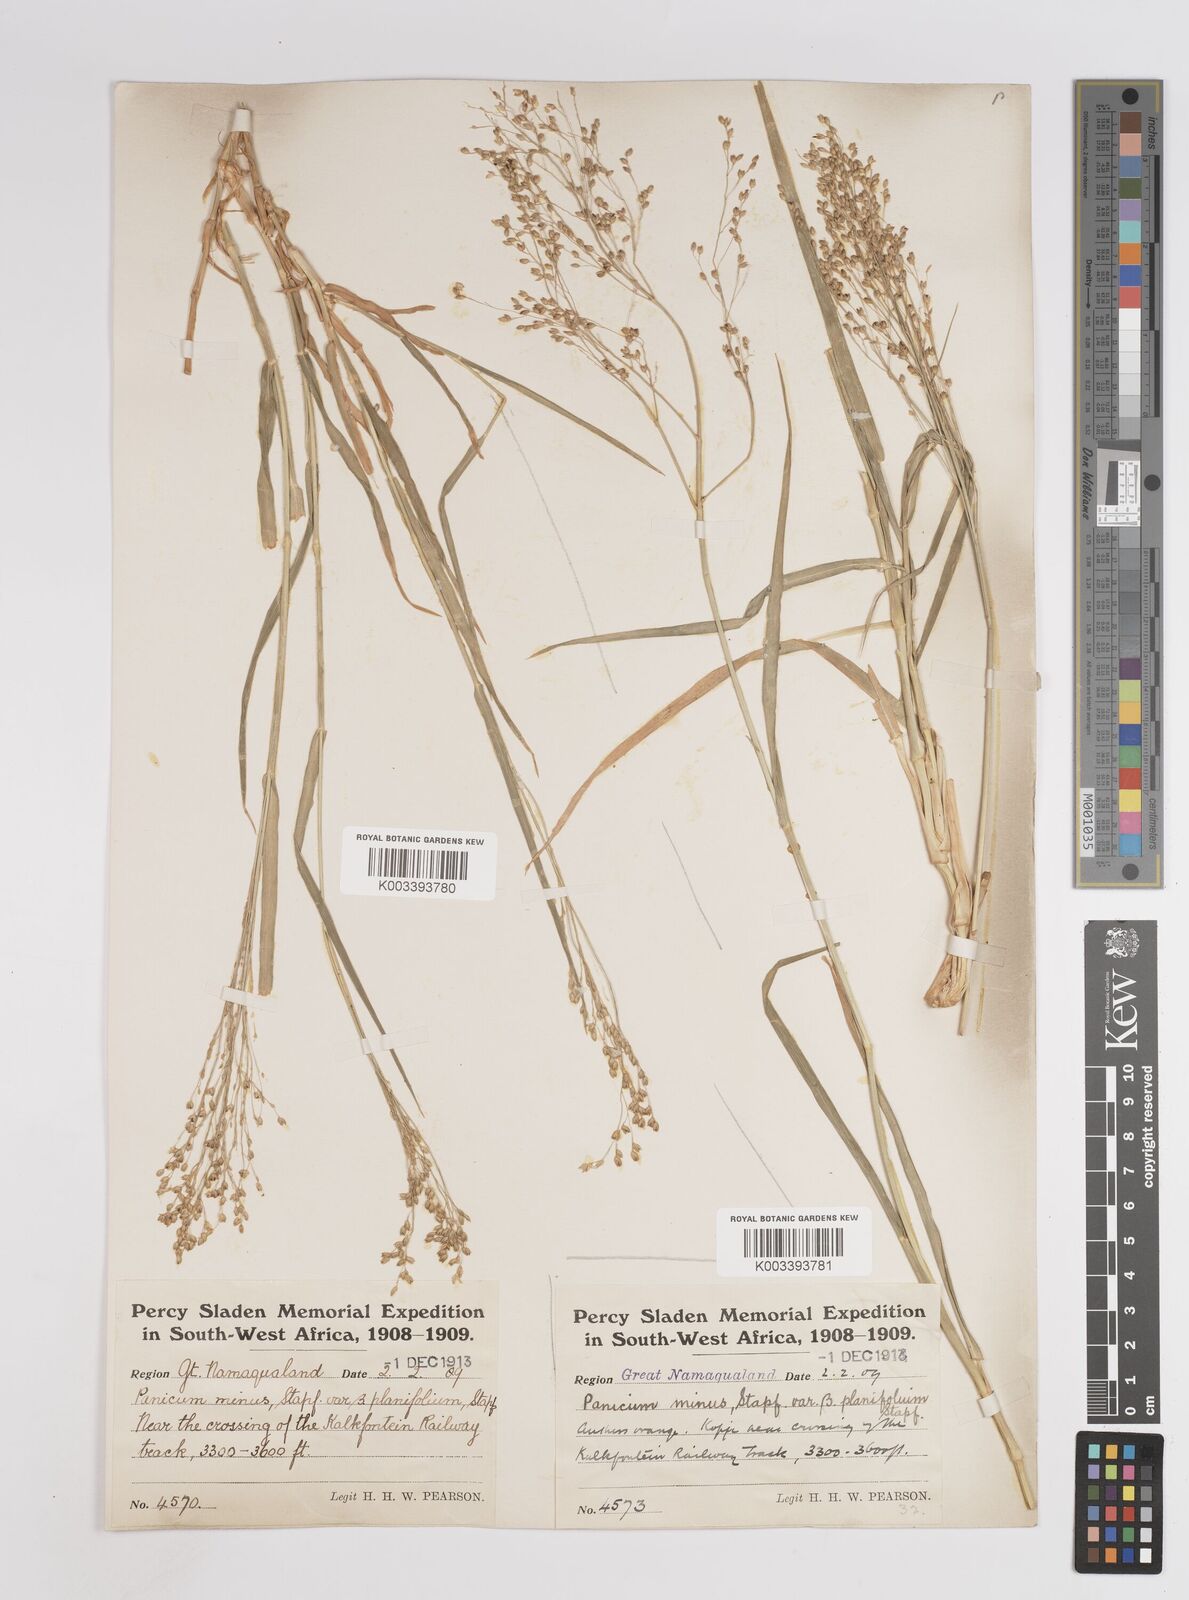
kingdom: Plantae
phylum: Tracheophyta
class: Liliopsida
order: Poales
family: Poaceae
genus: Panicum
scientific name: Panicum arbusculum
